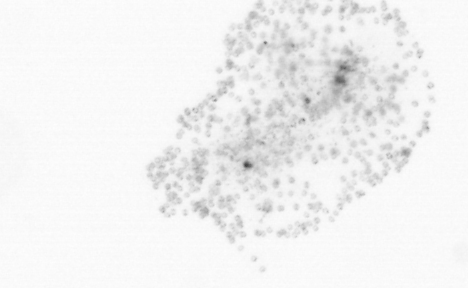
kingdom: Chromista
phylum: Ochrophyta
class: Bacillariophyceae
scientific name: Bacillariophyceae
